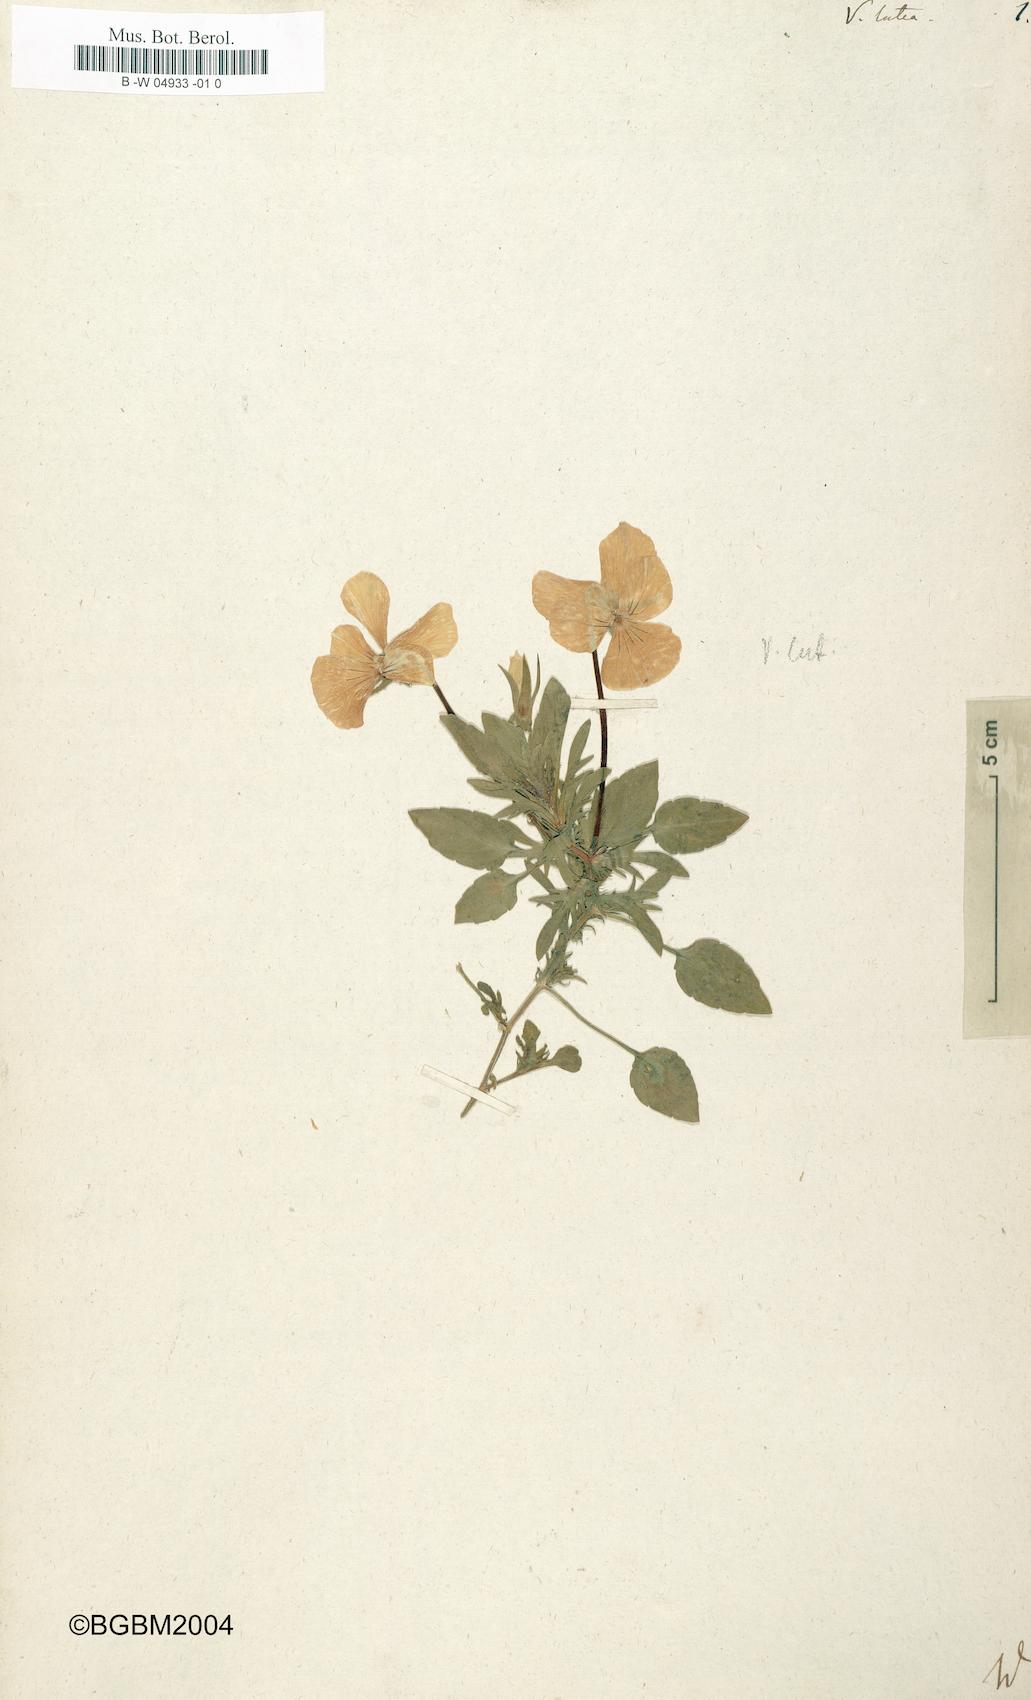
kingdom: Plantae
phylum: Tracheophyta
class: Magnoliopsida
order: Malpighiales
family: Violaceae
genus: Viola
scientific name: Viola lutea
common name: Mountain pansy
